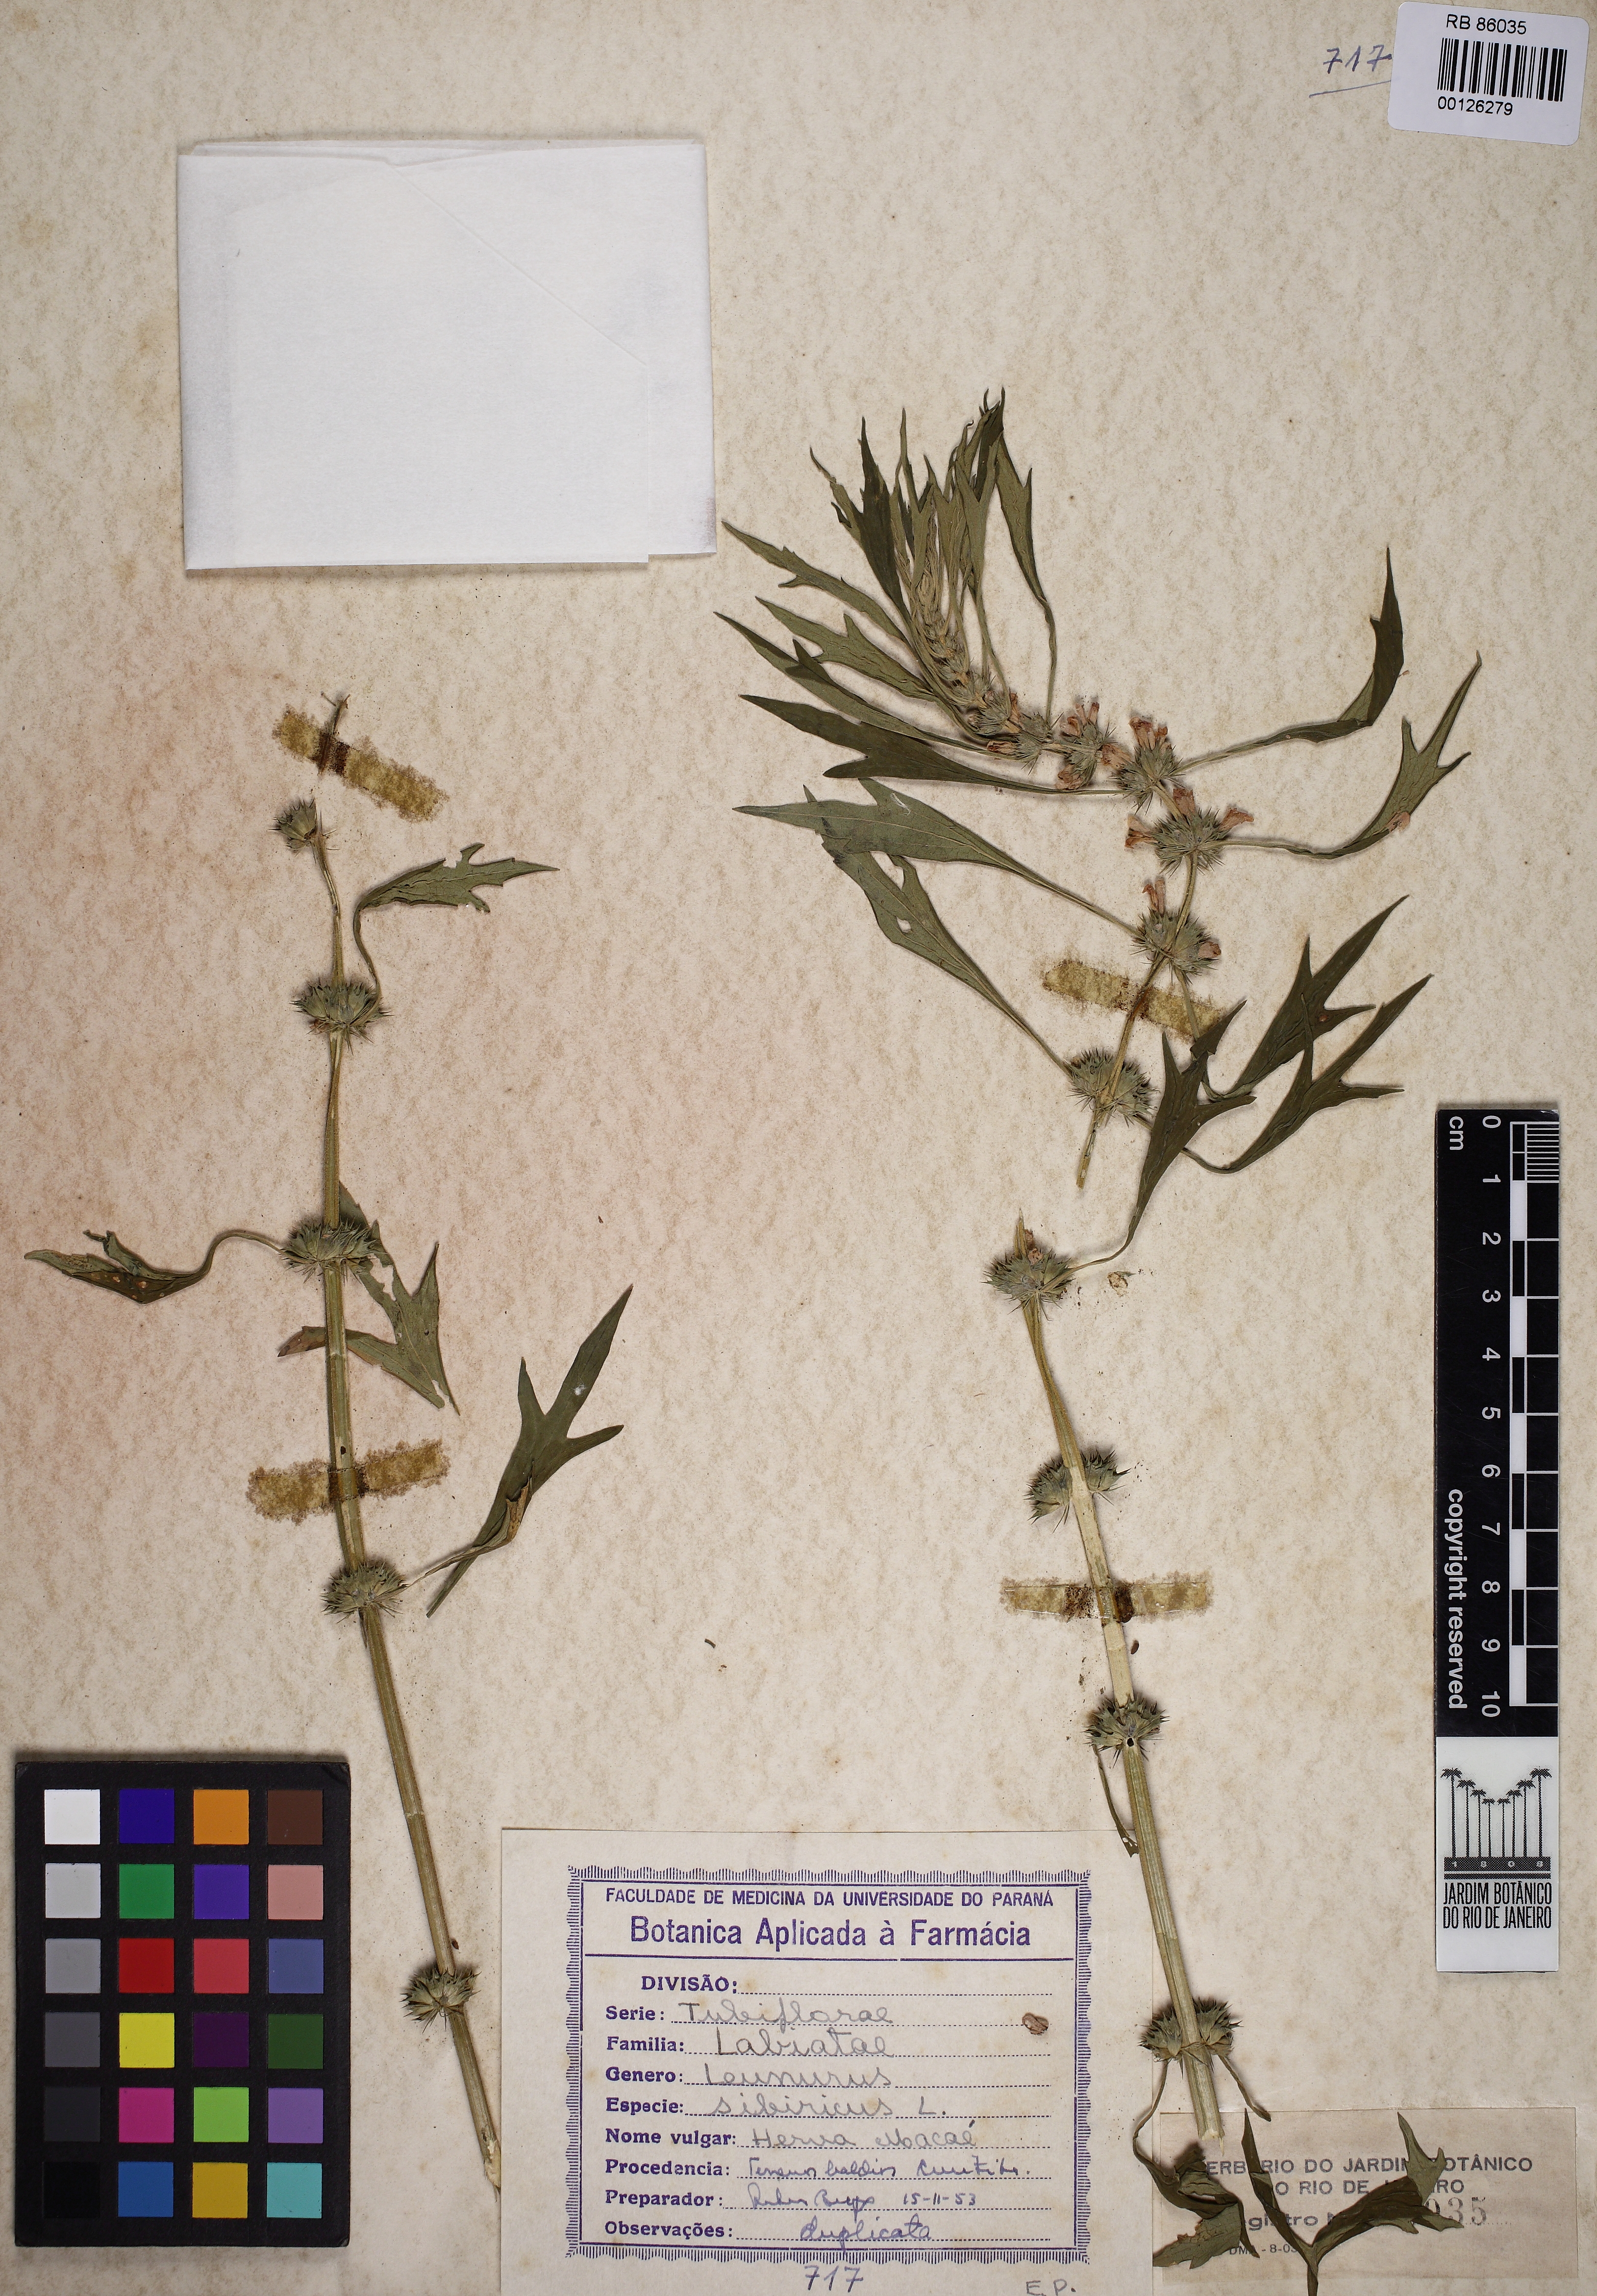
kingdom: Plantae
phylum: Tracheophyta
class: Magnoliopsida
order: Lamiales
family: Lamiaceae
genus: Leonurus
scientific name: Leonurus sibiricus
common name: Honeyweed
